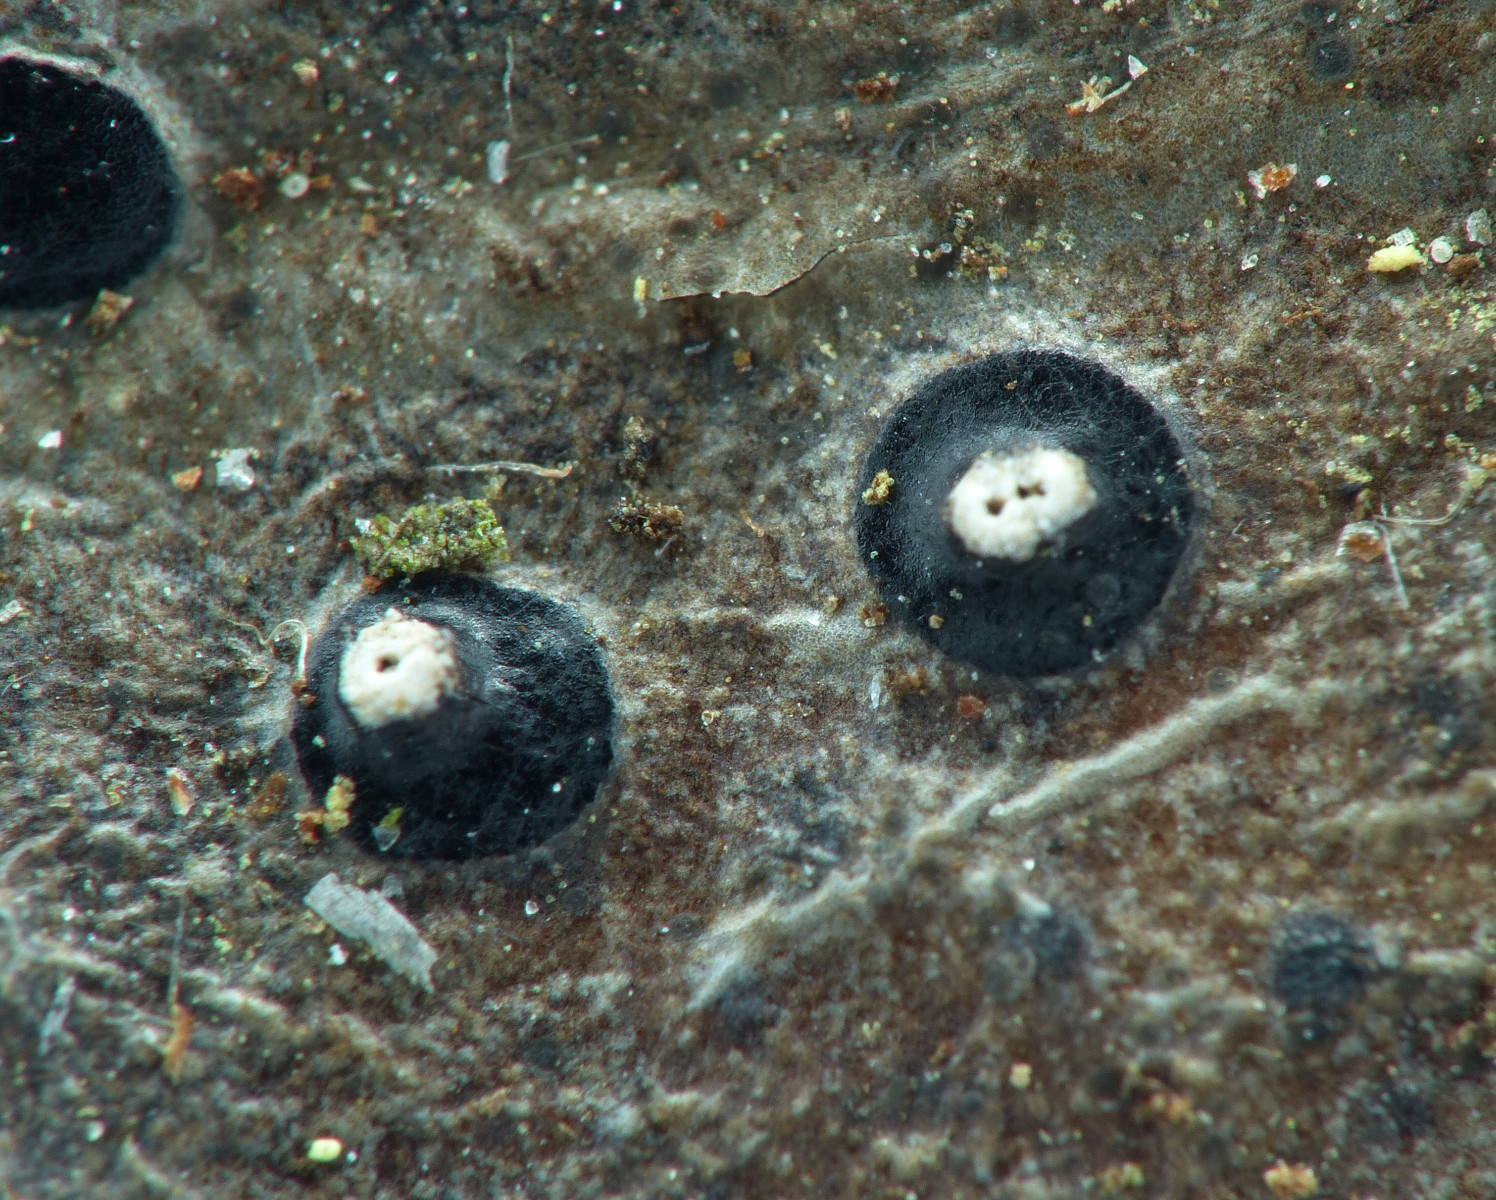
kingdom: Fungi
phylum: Ascomycota
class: Leotiomycetes
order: Phacidiales
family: Phacidiaceae
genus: Phacidium
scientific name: Phacidium lauri
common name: kristtorn-tandskive
